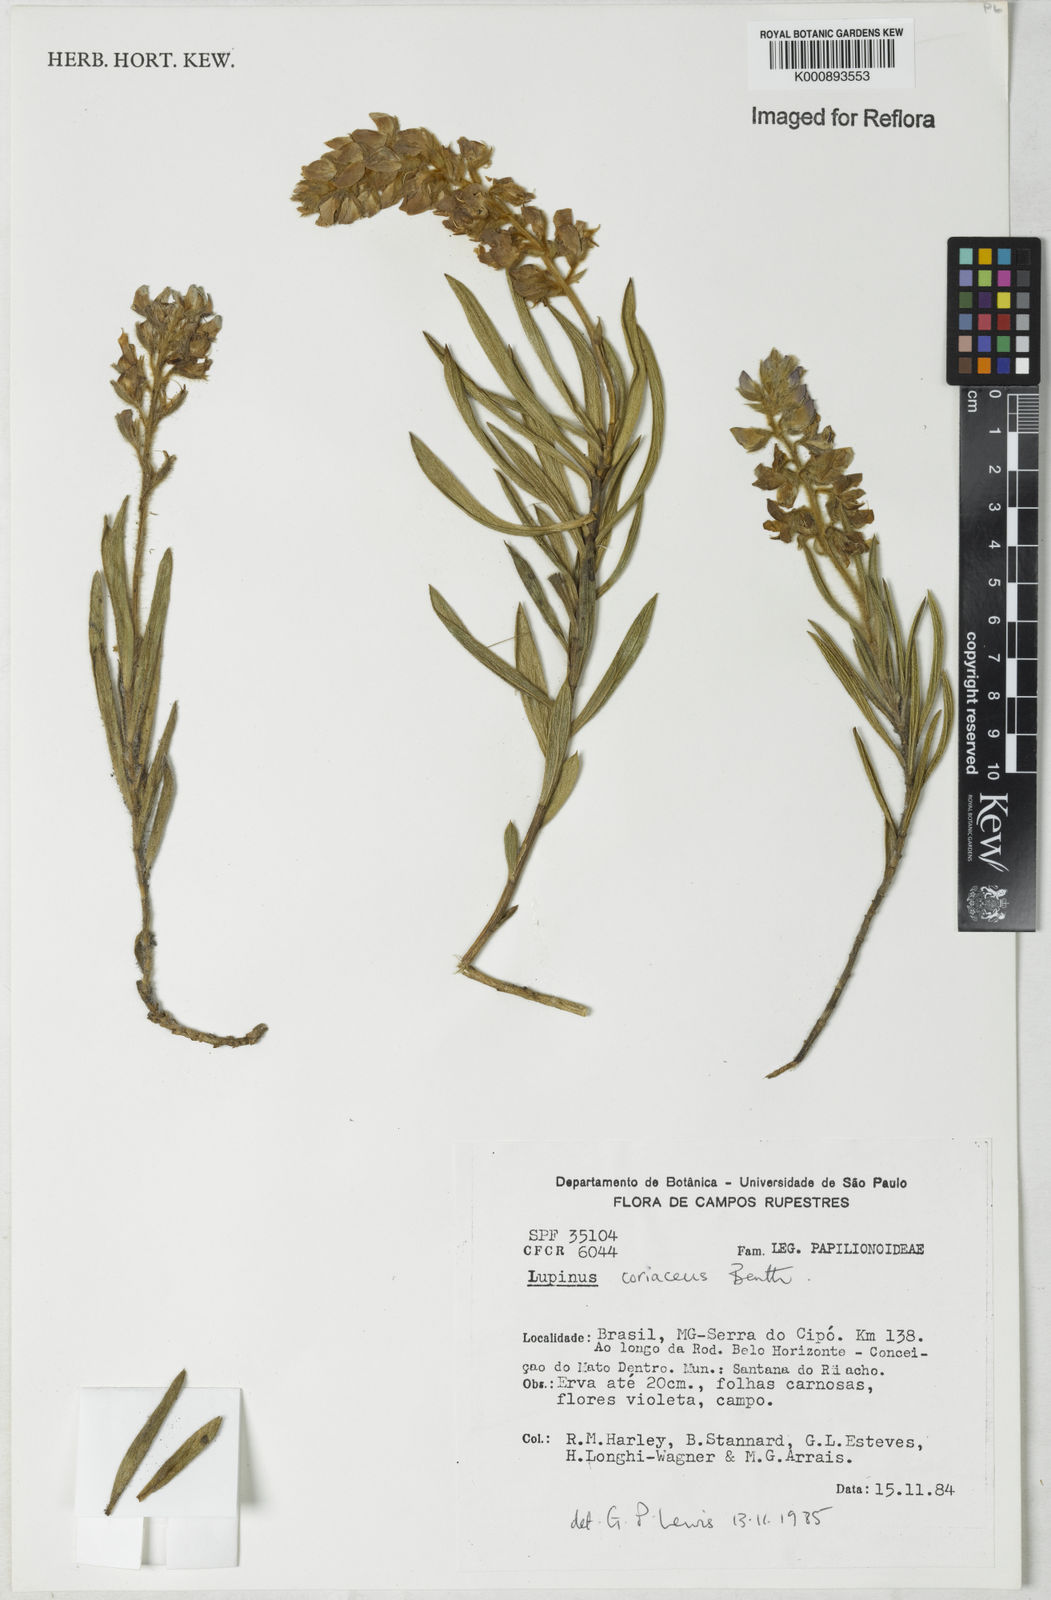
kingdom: Plantae
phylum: Tracheophyta
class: Magnoliopsida
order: Fabales
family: Fabaceae
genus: Lupinus
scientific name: Lupinus coriaceus
